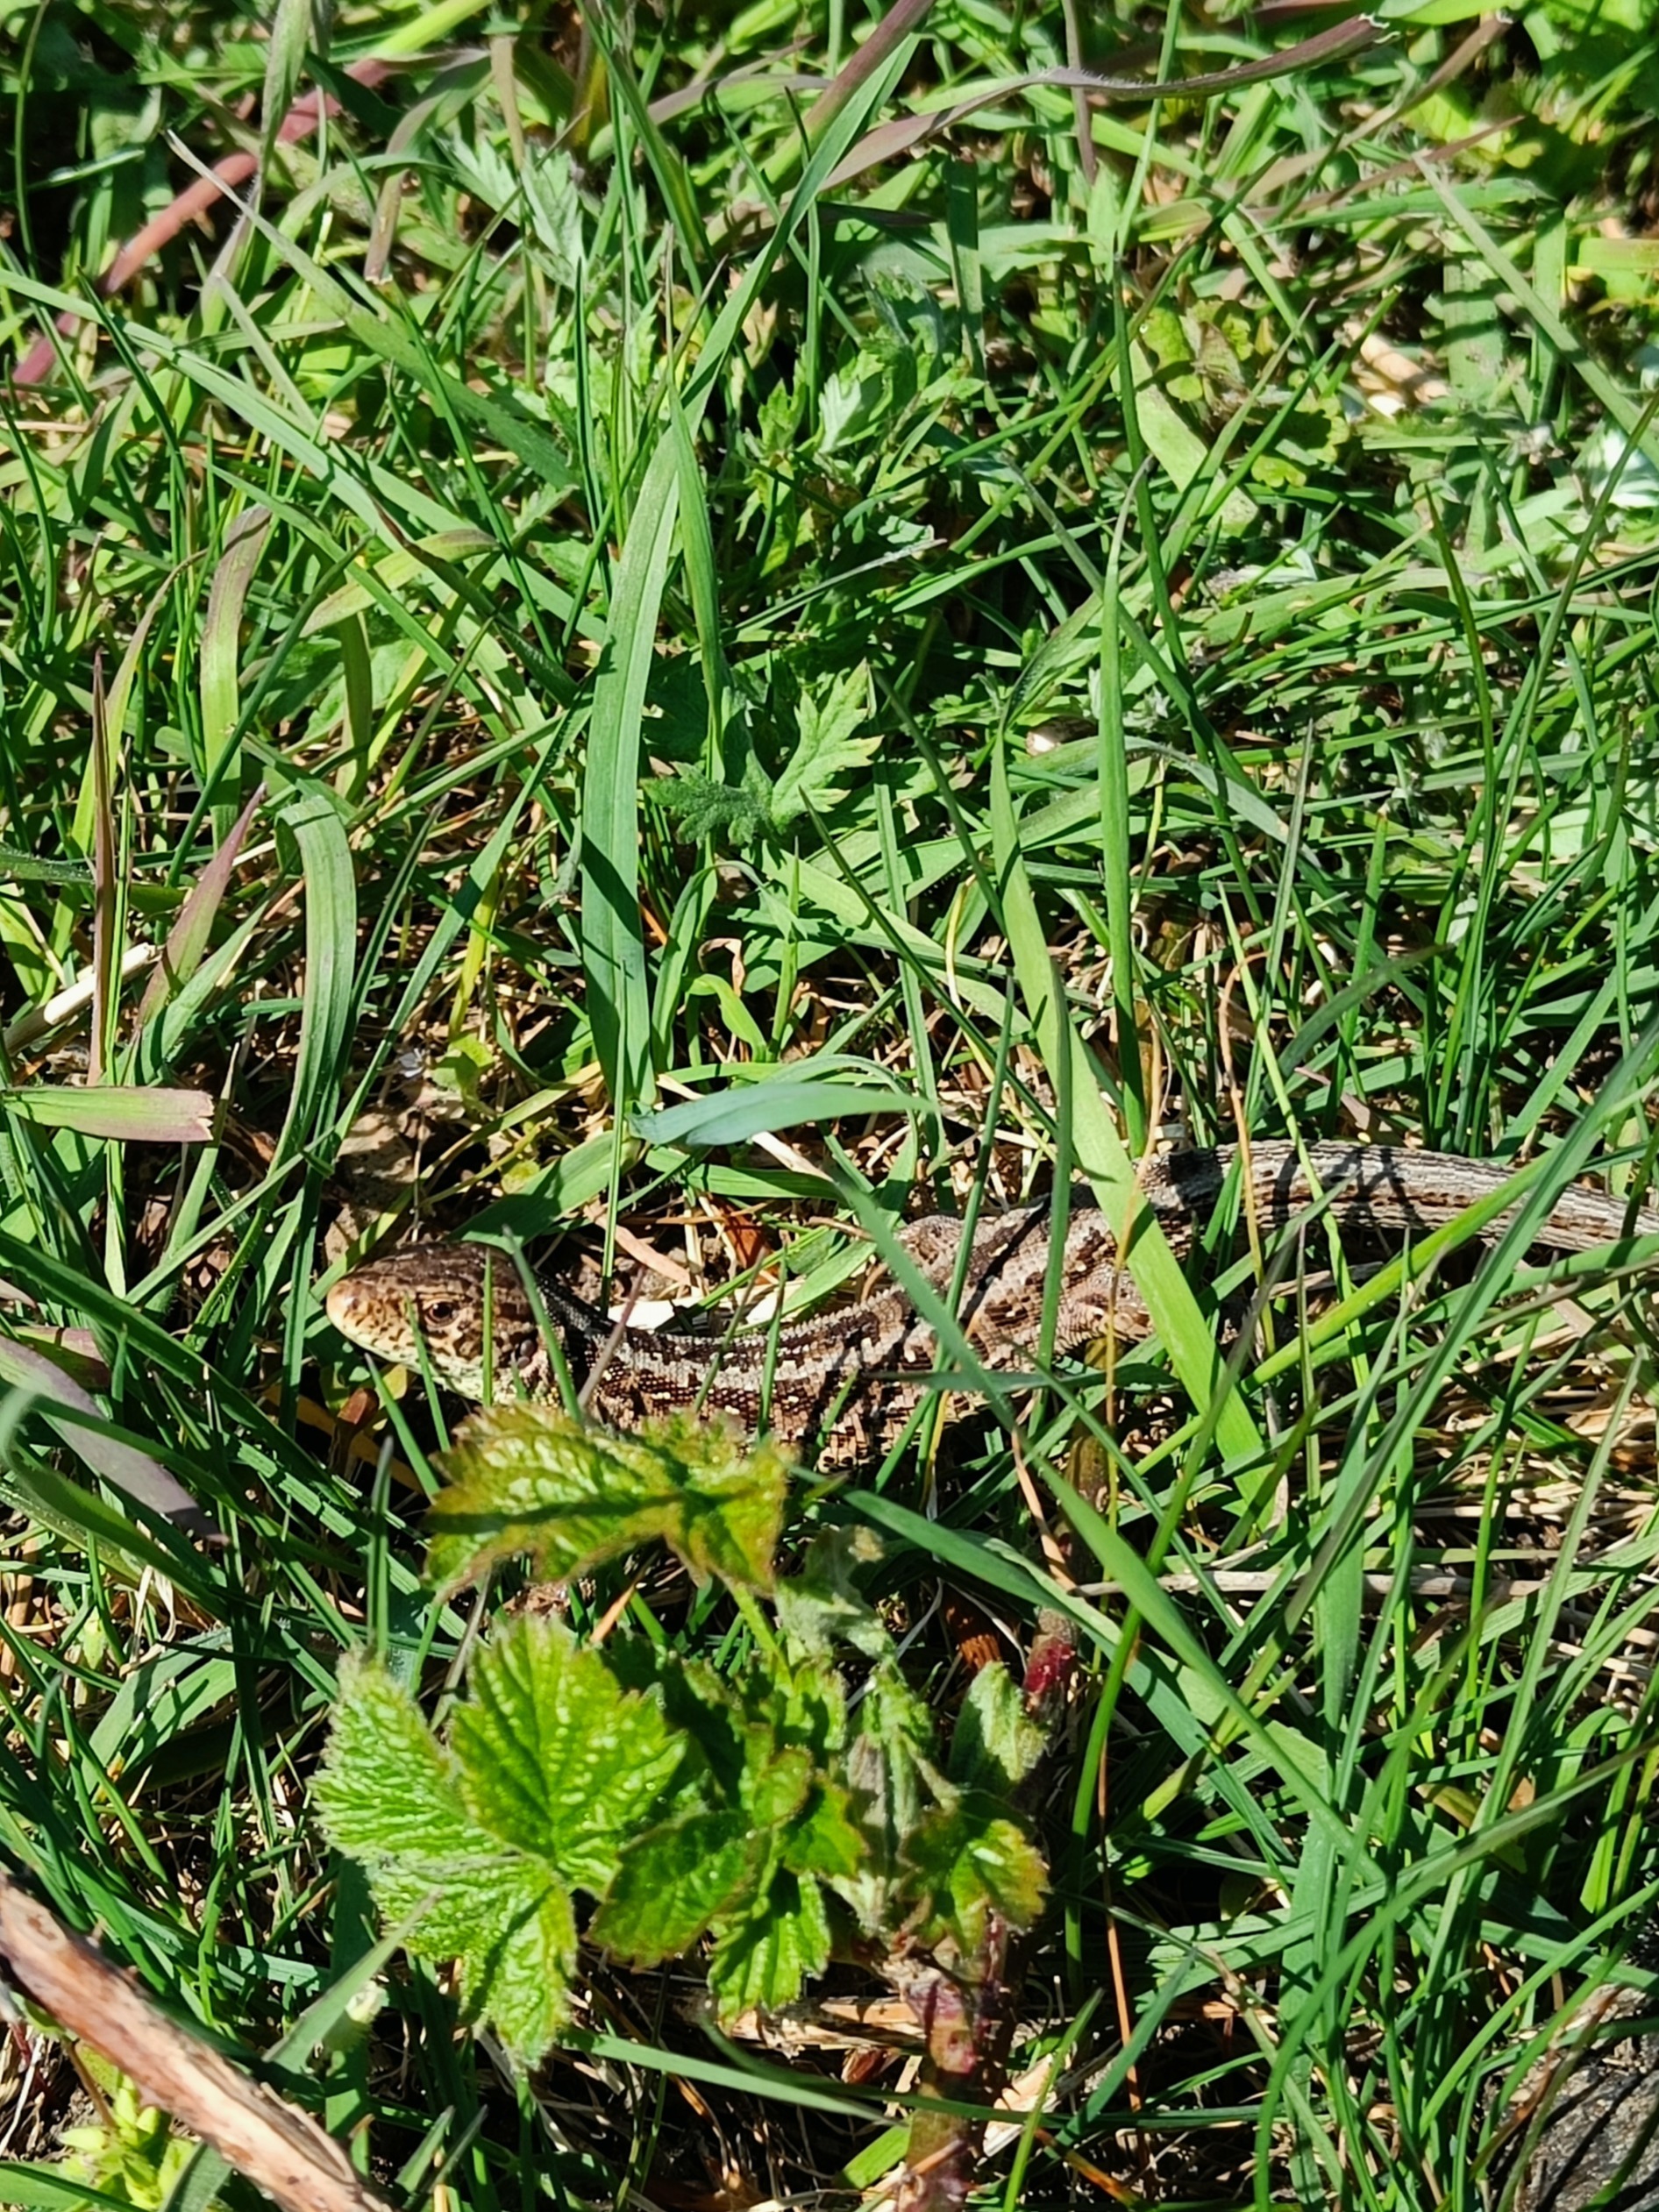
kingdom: Animalia
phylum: Chordata
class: Squamata
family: Lacertidae
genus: Lacerta
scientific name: Lacerta agilis
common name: Markfirben
